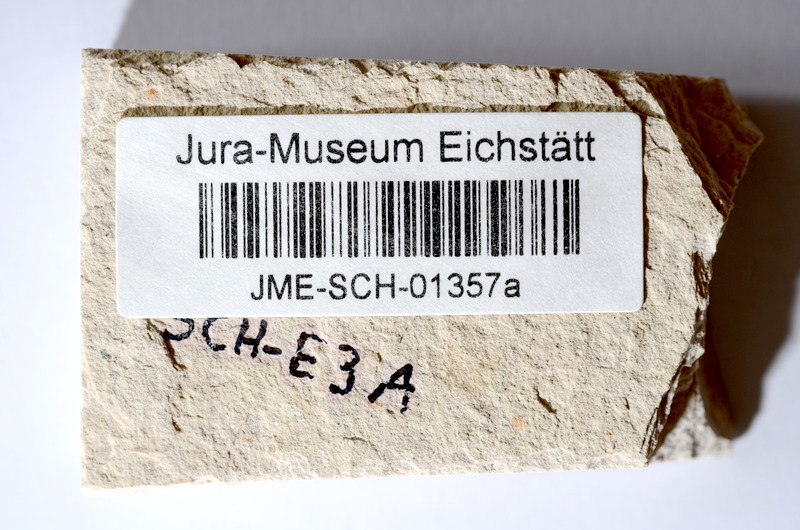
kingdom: Animalia
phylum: Chordata
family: Ascalaboidae
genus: Tharsis
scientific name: Tharsis dubius
